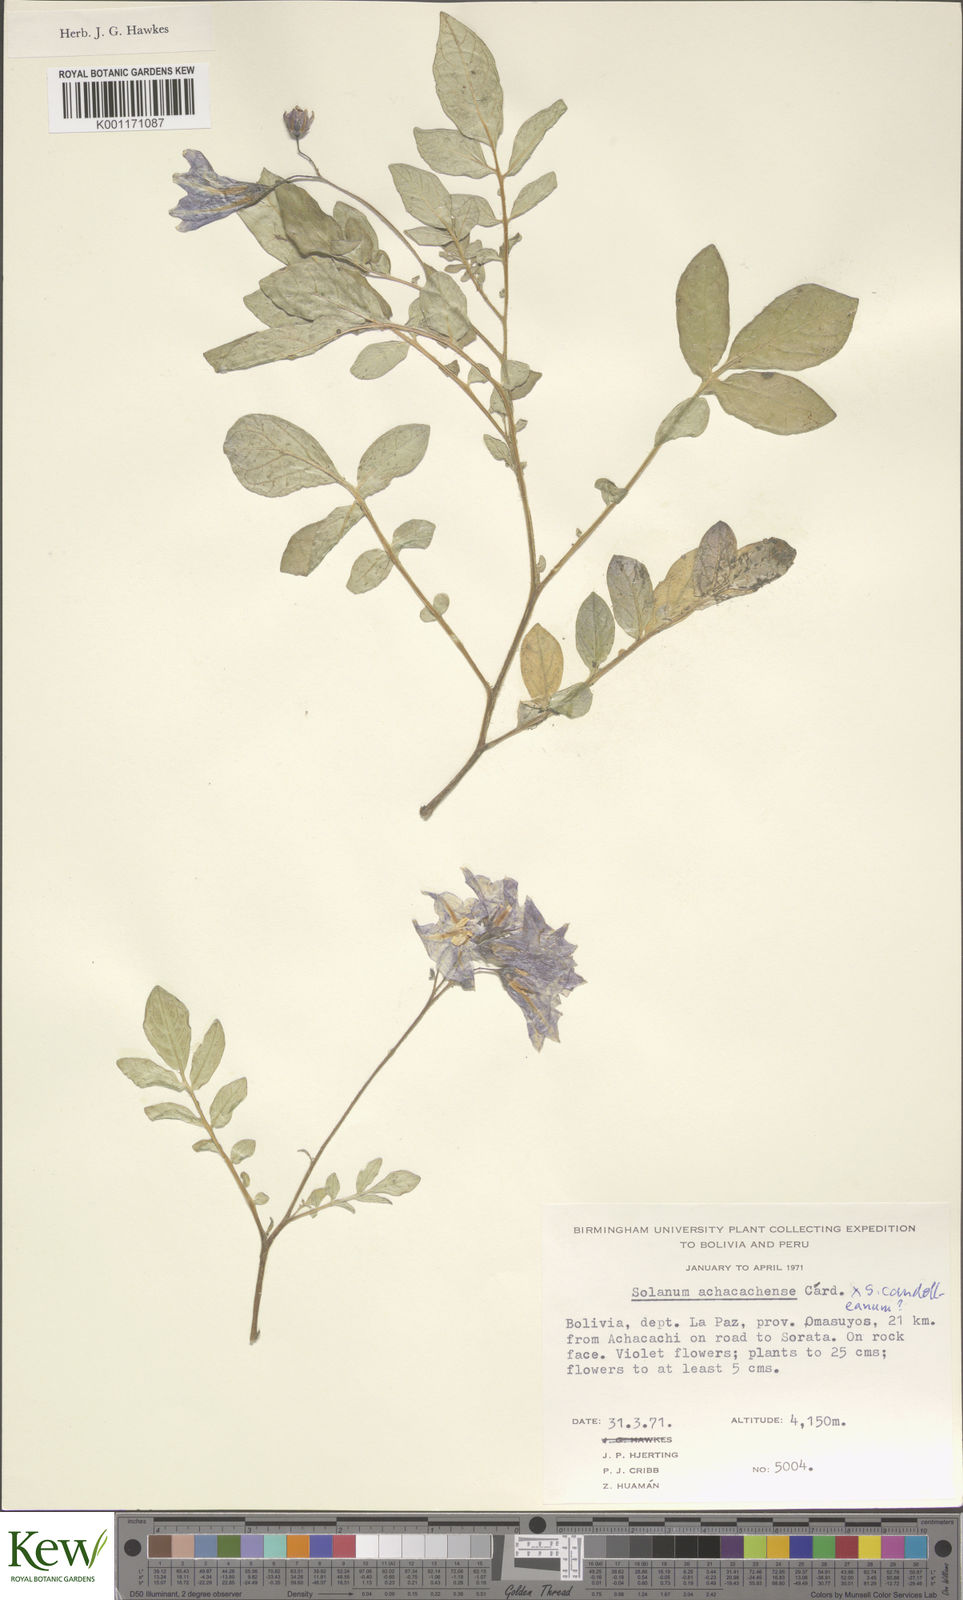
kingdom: Plantae
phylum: Tracheophyta
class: Magnoliopsida
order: Solanales
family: Solanaceae
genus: Solanum
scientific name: Solanum
